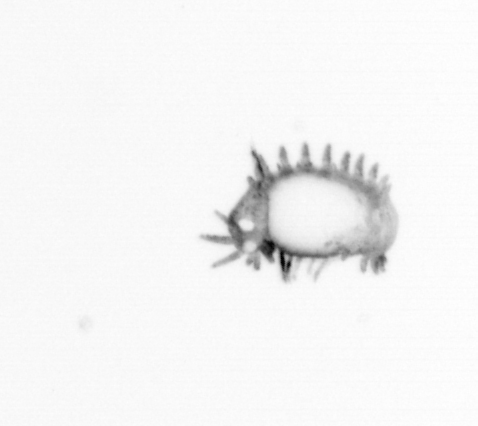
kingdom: Animalia
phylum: Annelida
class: Polychaeta
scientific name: Polychaeta
